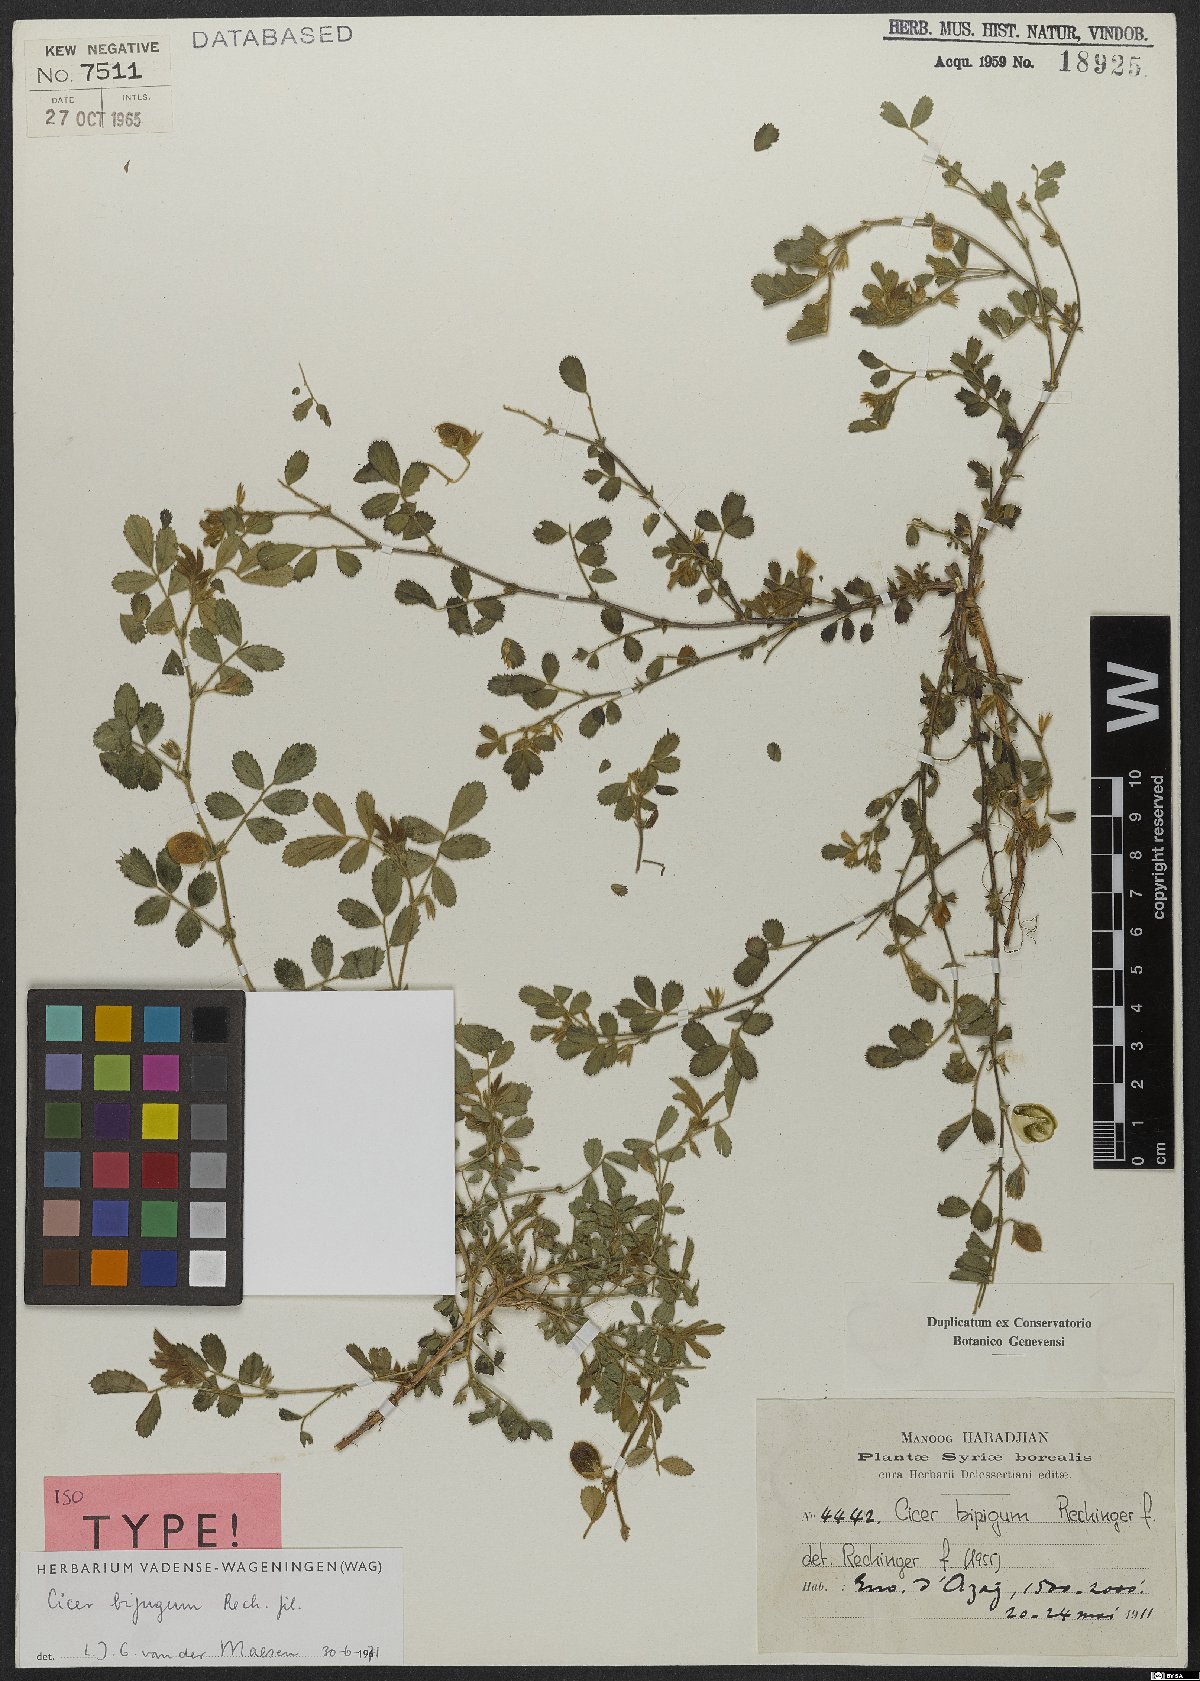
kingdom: Plantae
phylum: Tracheophyta
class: Magnoliopsida
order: Fabales
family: Fabaceae
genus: Cicer
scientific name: Cicer bijugum
